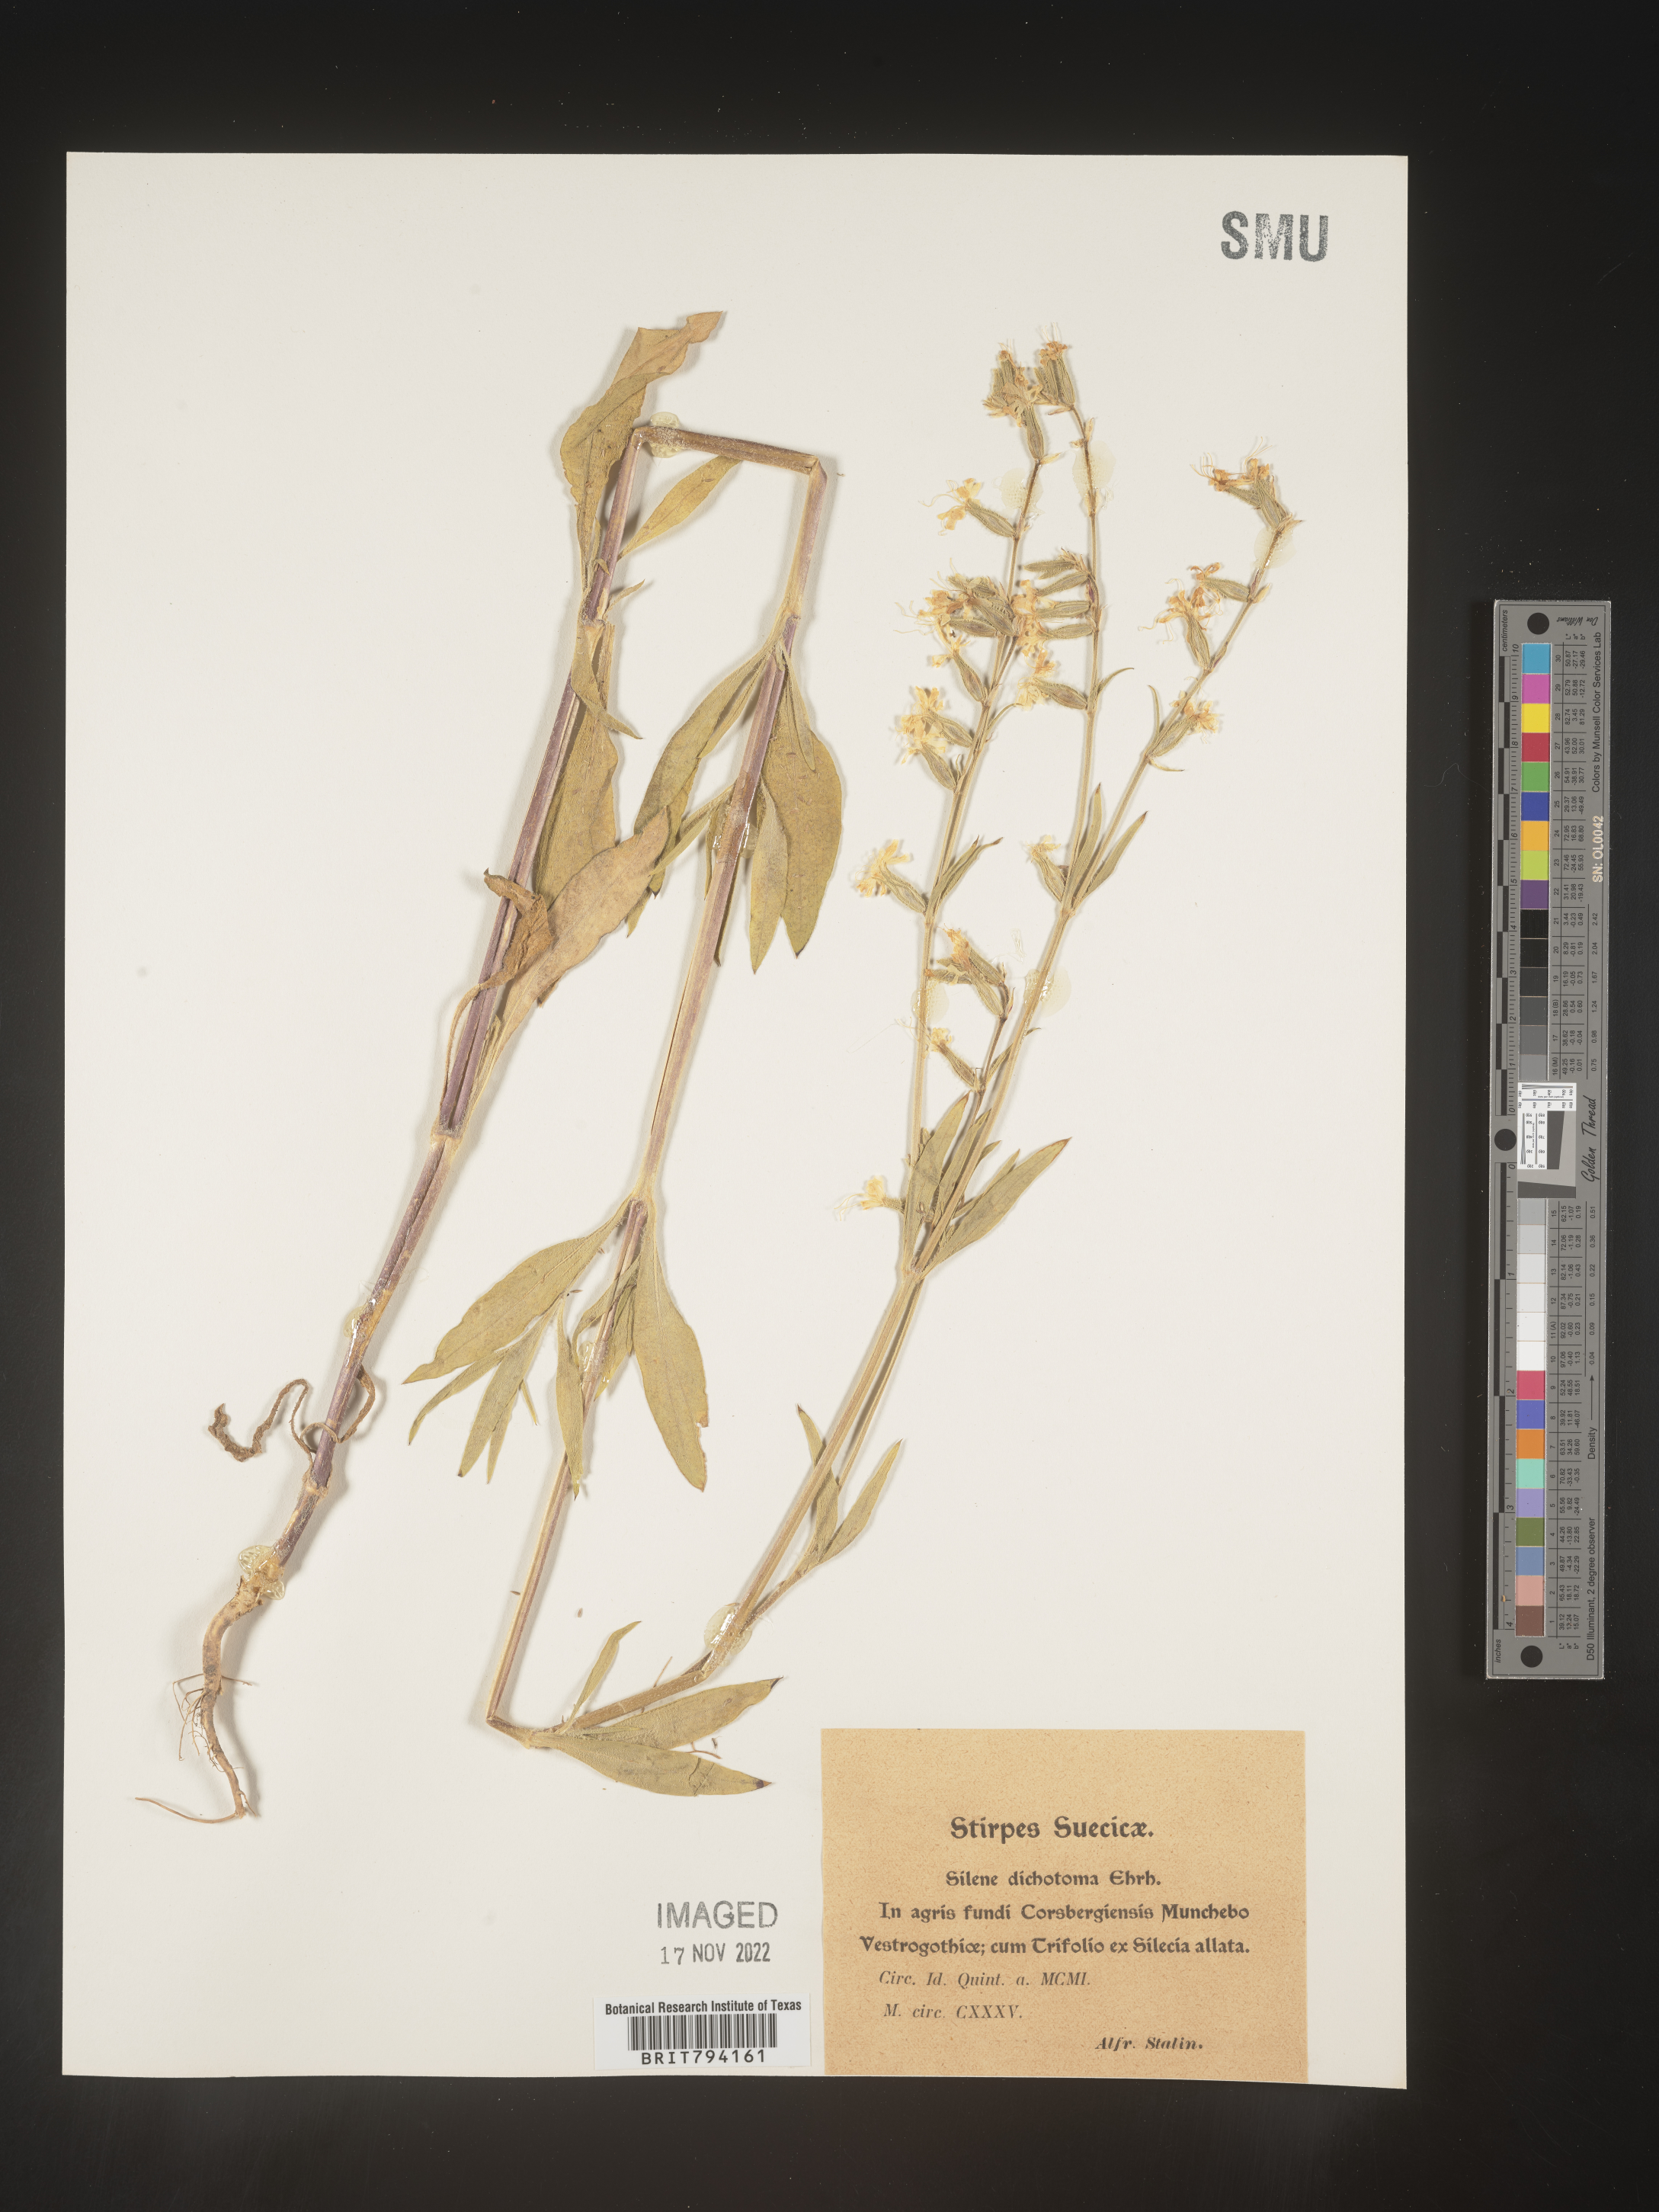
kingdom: Plantae
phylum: Tracheophyta
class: Magnoliopsida
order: Caryophyllales
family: Caryophyllaceae
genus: Silene
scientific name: Silene dichotoma
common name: Forked catchfly
